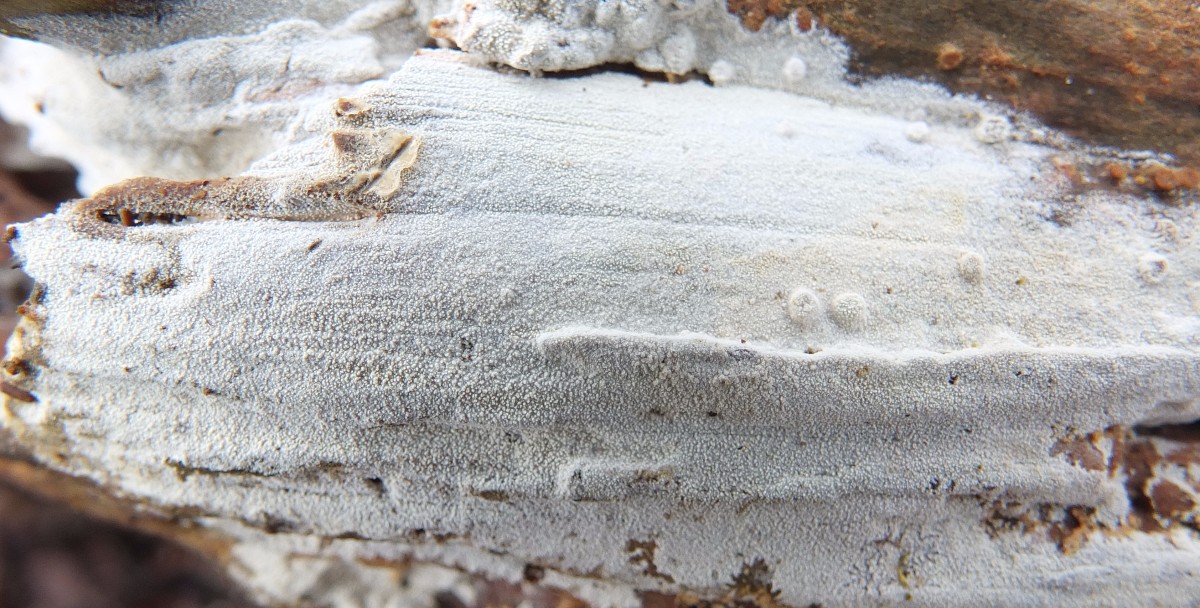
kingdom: Fungi
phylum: Basidiomycota
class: Agaricomycetes
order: Hymenochaetales
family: Schizoporaceae
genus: Xylodon
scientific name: Xylodon nesporii
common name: fintandet tandsvamp
